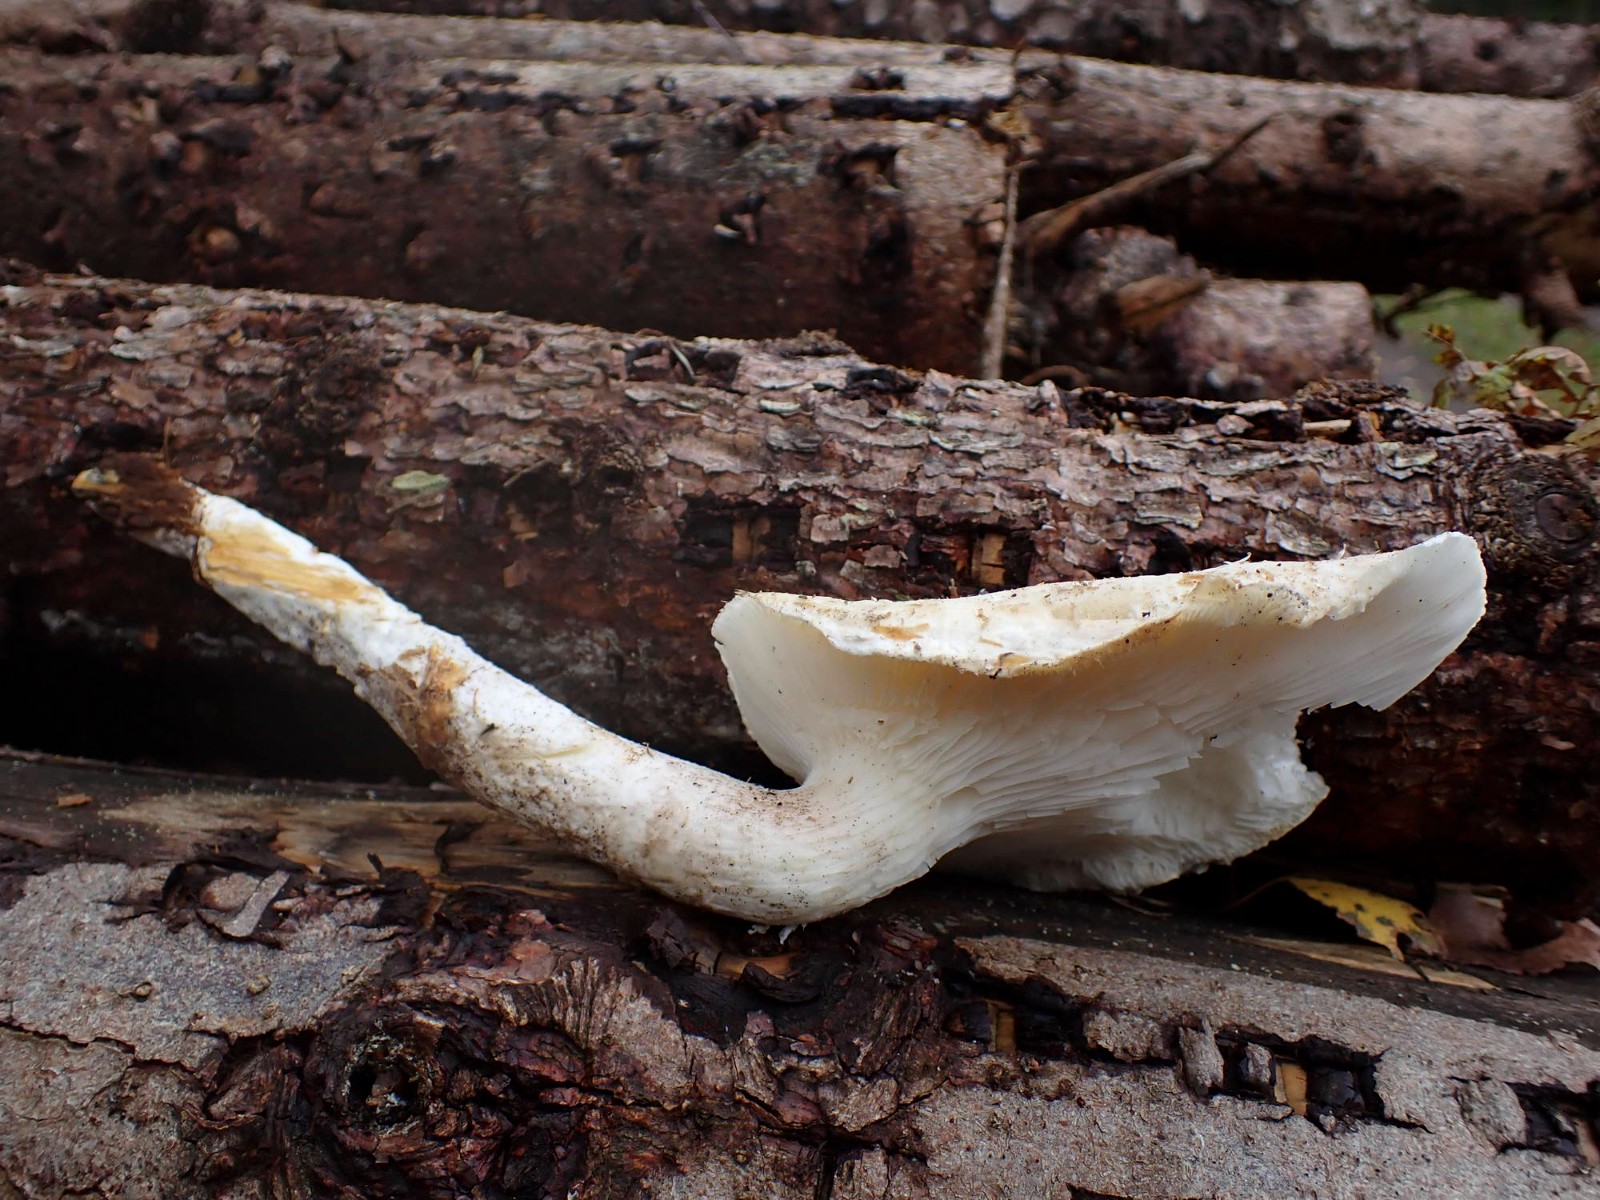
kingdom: Fungi
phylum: Basidiomycota
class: Agaricomycetes
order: Agaricales
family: Pleurotaceae
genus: Pleurotus
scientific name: Pleurotus dryinus
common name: korkagtig østershat
